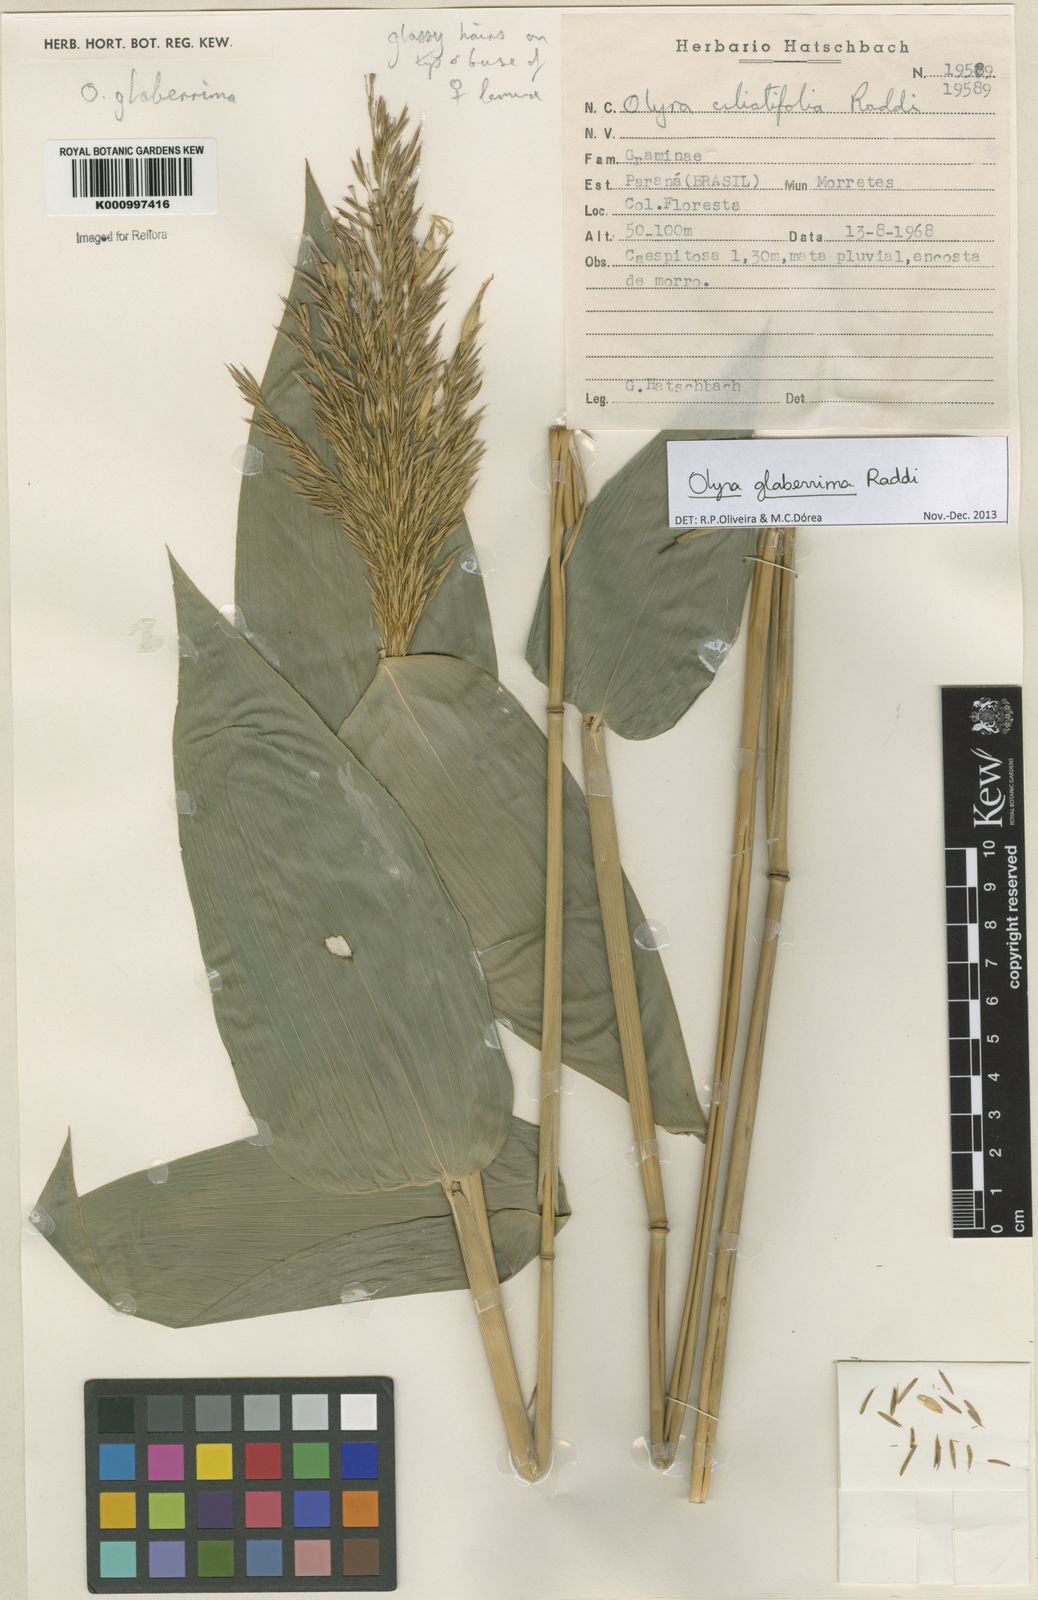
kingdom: Plantae
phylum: Tracheophyta
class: Liliopsida
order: Poales
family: Poaceae
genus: Olyra
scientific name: Olyra glaberrima
